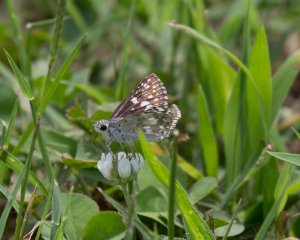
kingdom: Animalia
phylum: Arthropoda
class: Insecta
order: Lepidoptera
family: Hesperiidae
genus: Pyrgus
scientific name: Pyrgus
